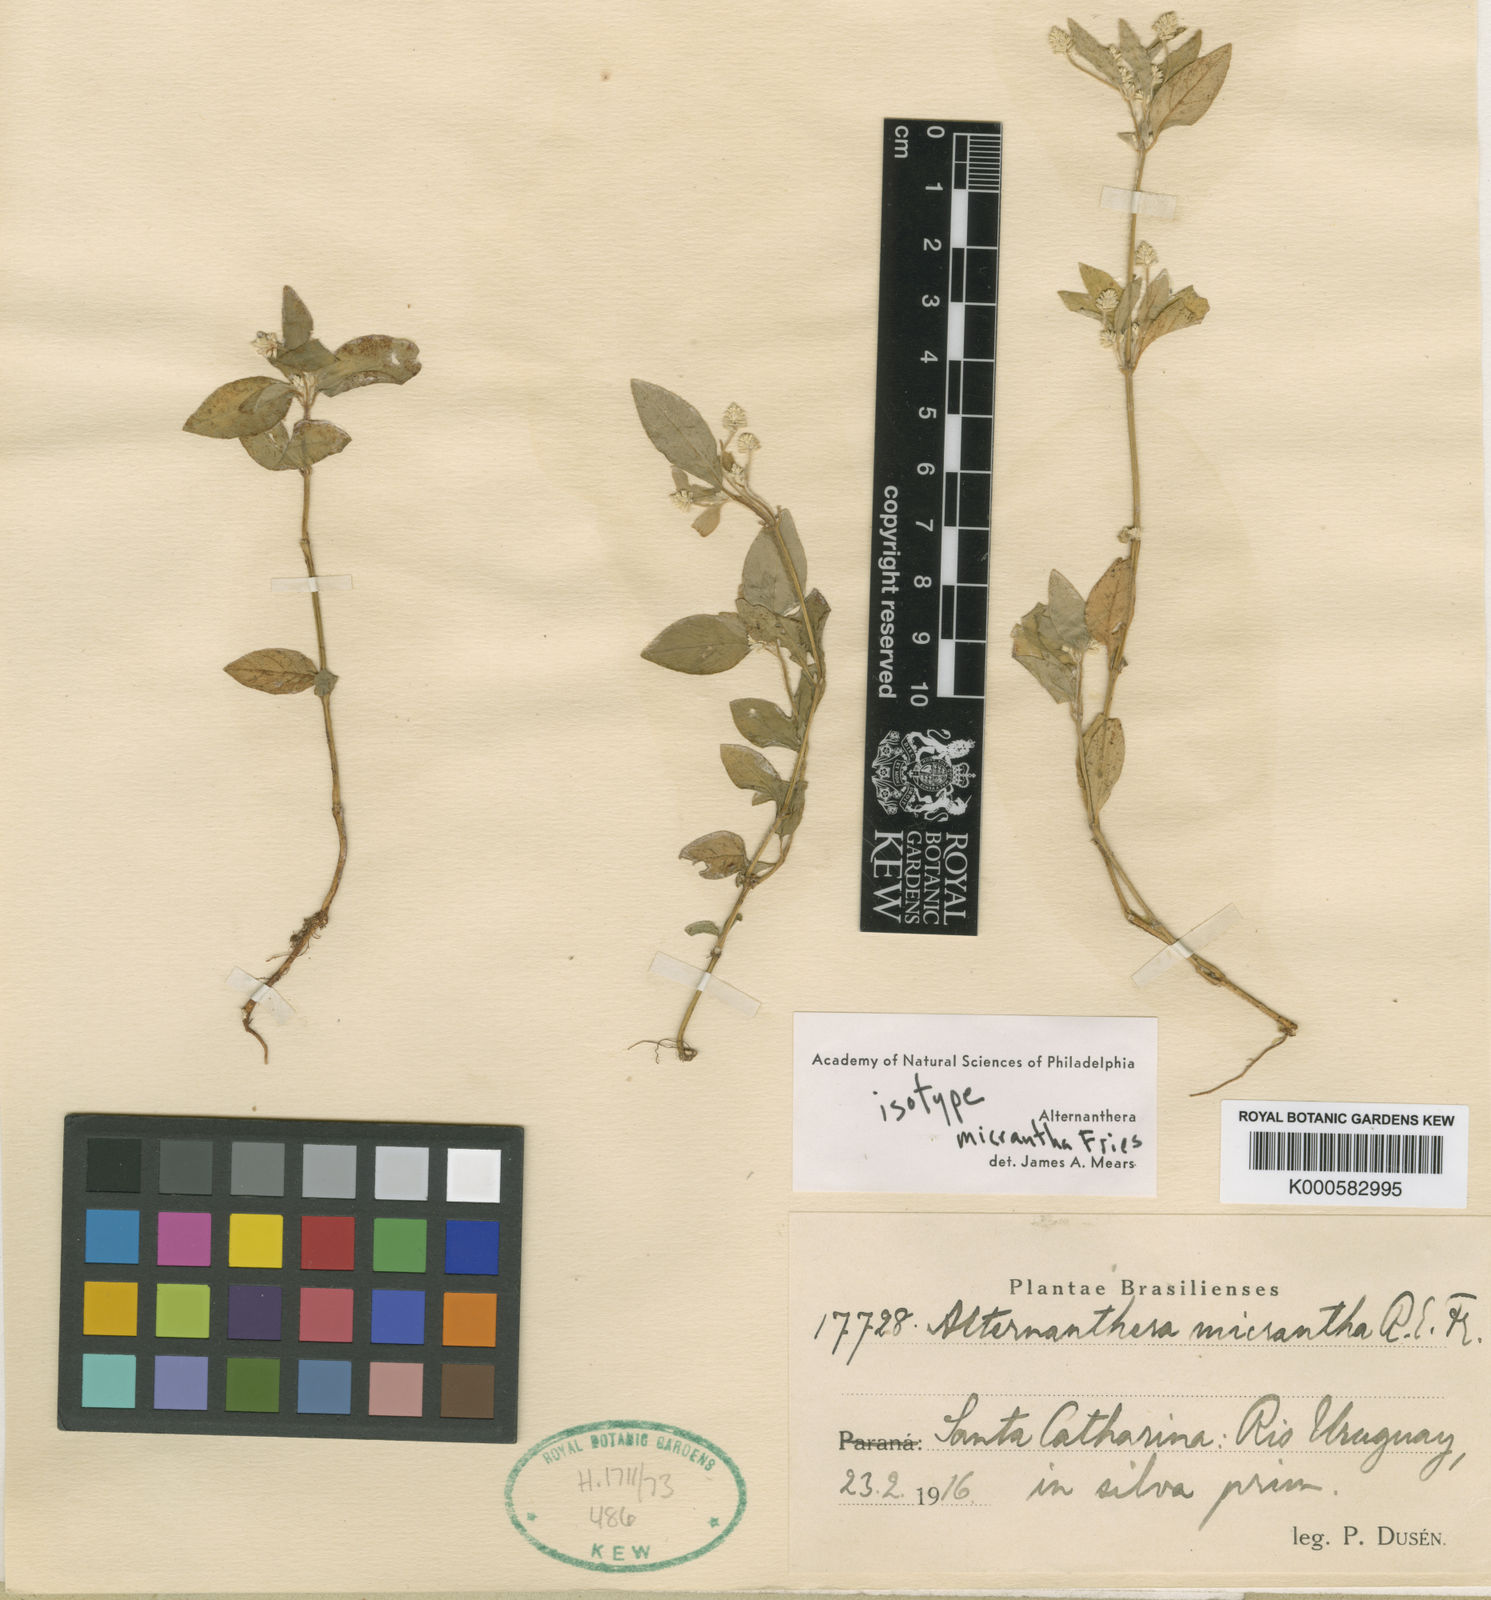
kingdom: Plantae
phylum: Tracheophyta
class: Magnoliopsida
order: Caryophyllales
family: Amaranthaceae
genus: Alternanthera
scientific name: Alternanthera micrantha
